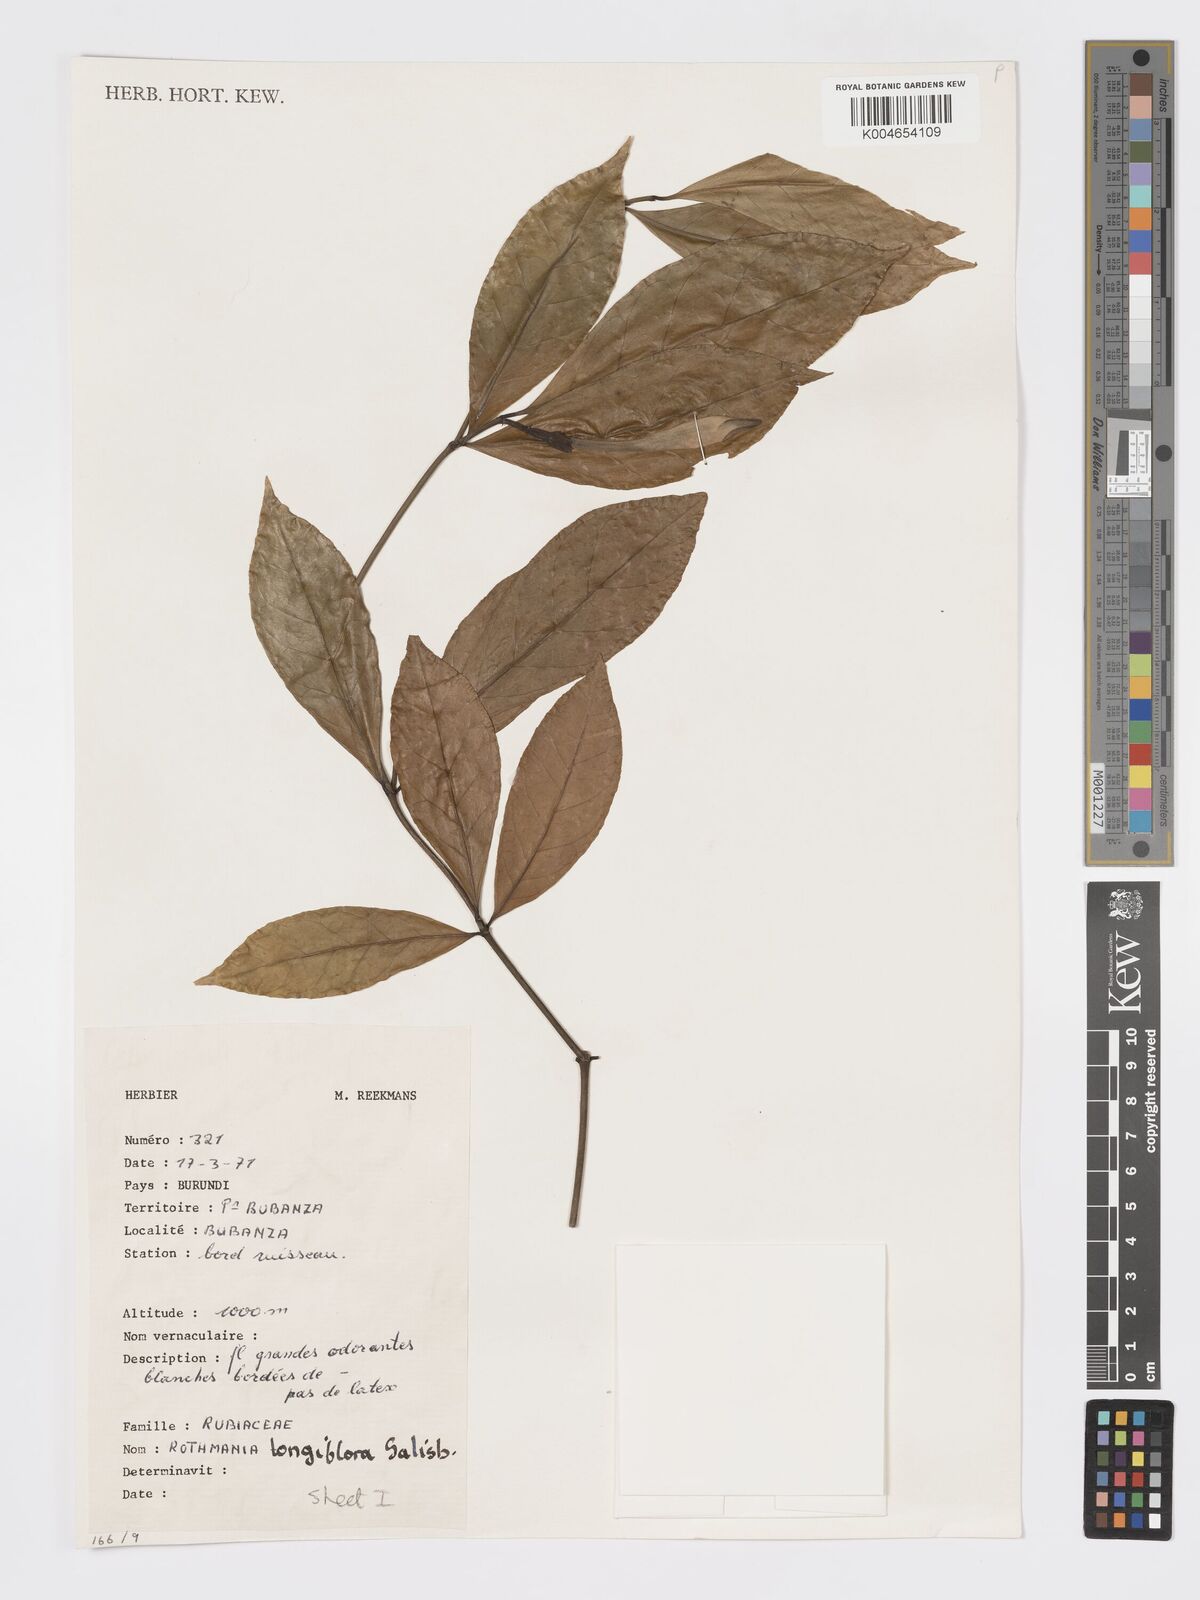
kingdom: Plantae
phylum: Tracheophyta
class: Magnoliopsida
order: Gentianales
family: Rubiaceae
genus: Rothmannia
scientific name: Rothmannia longiflora
